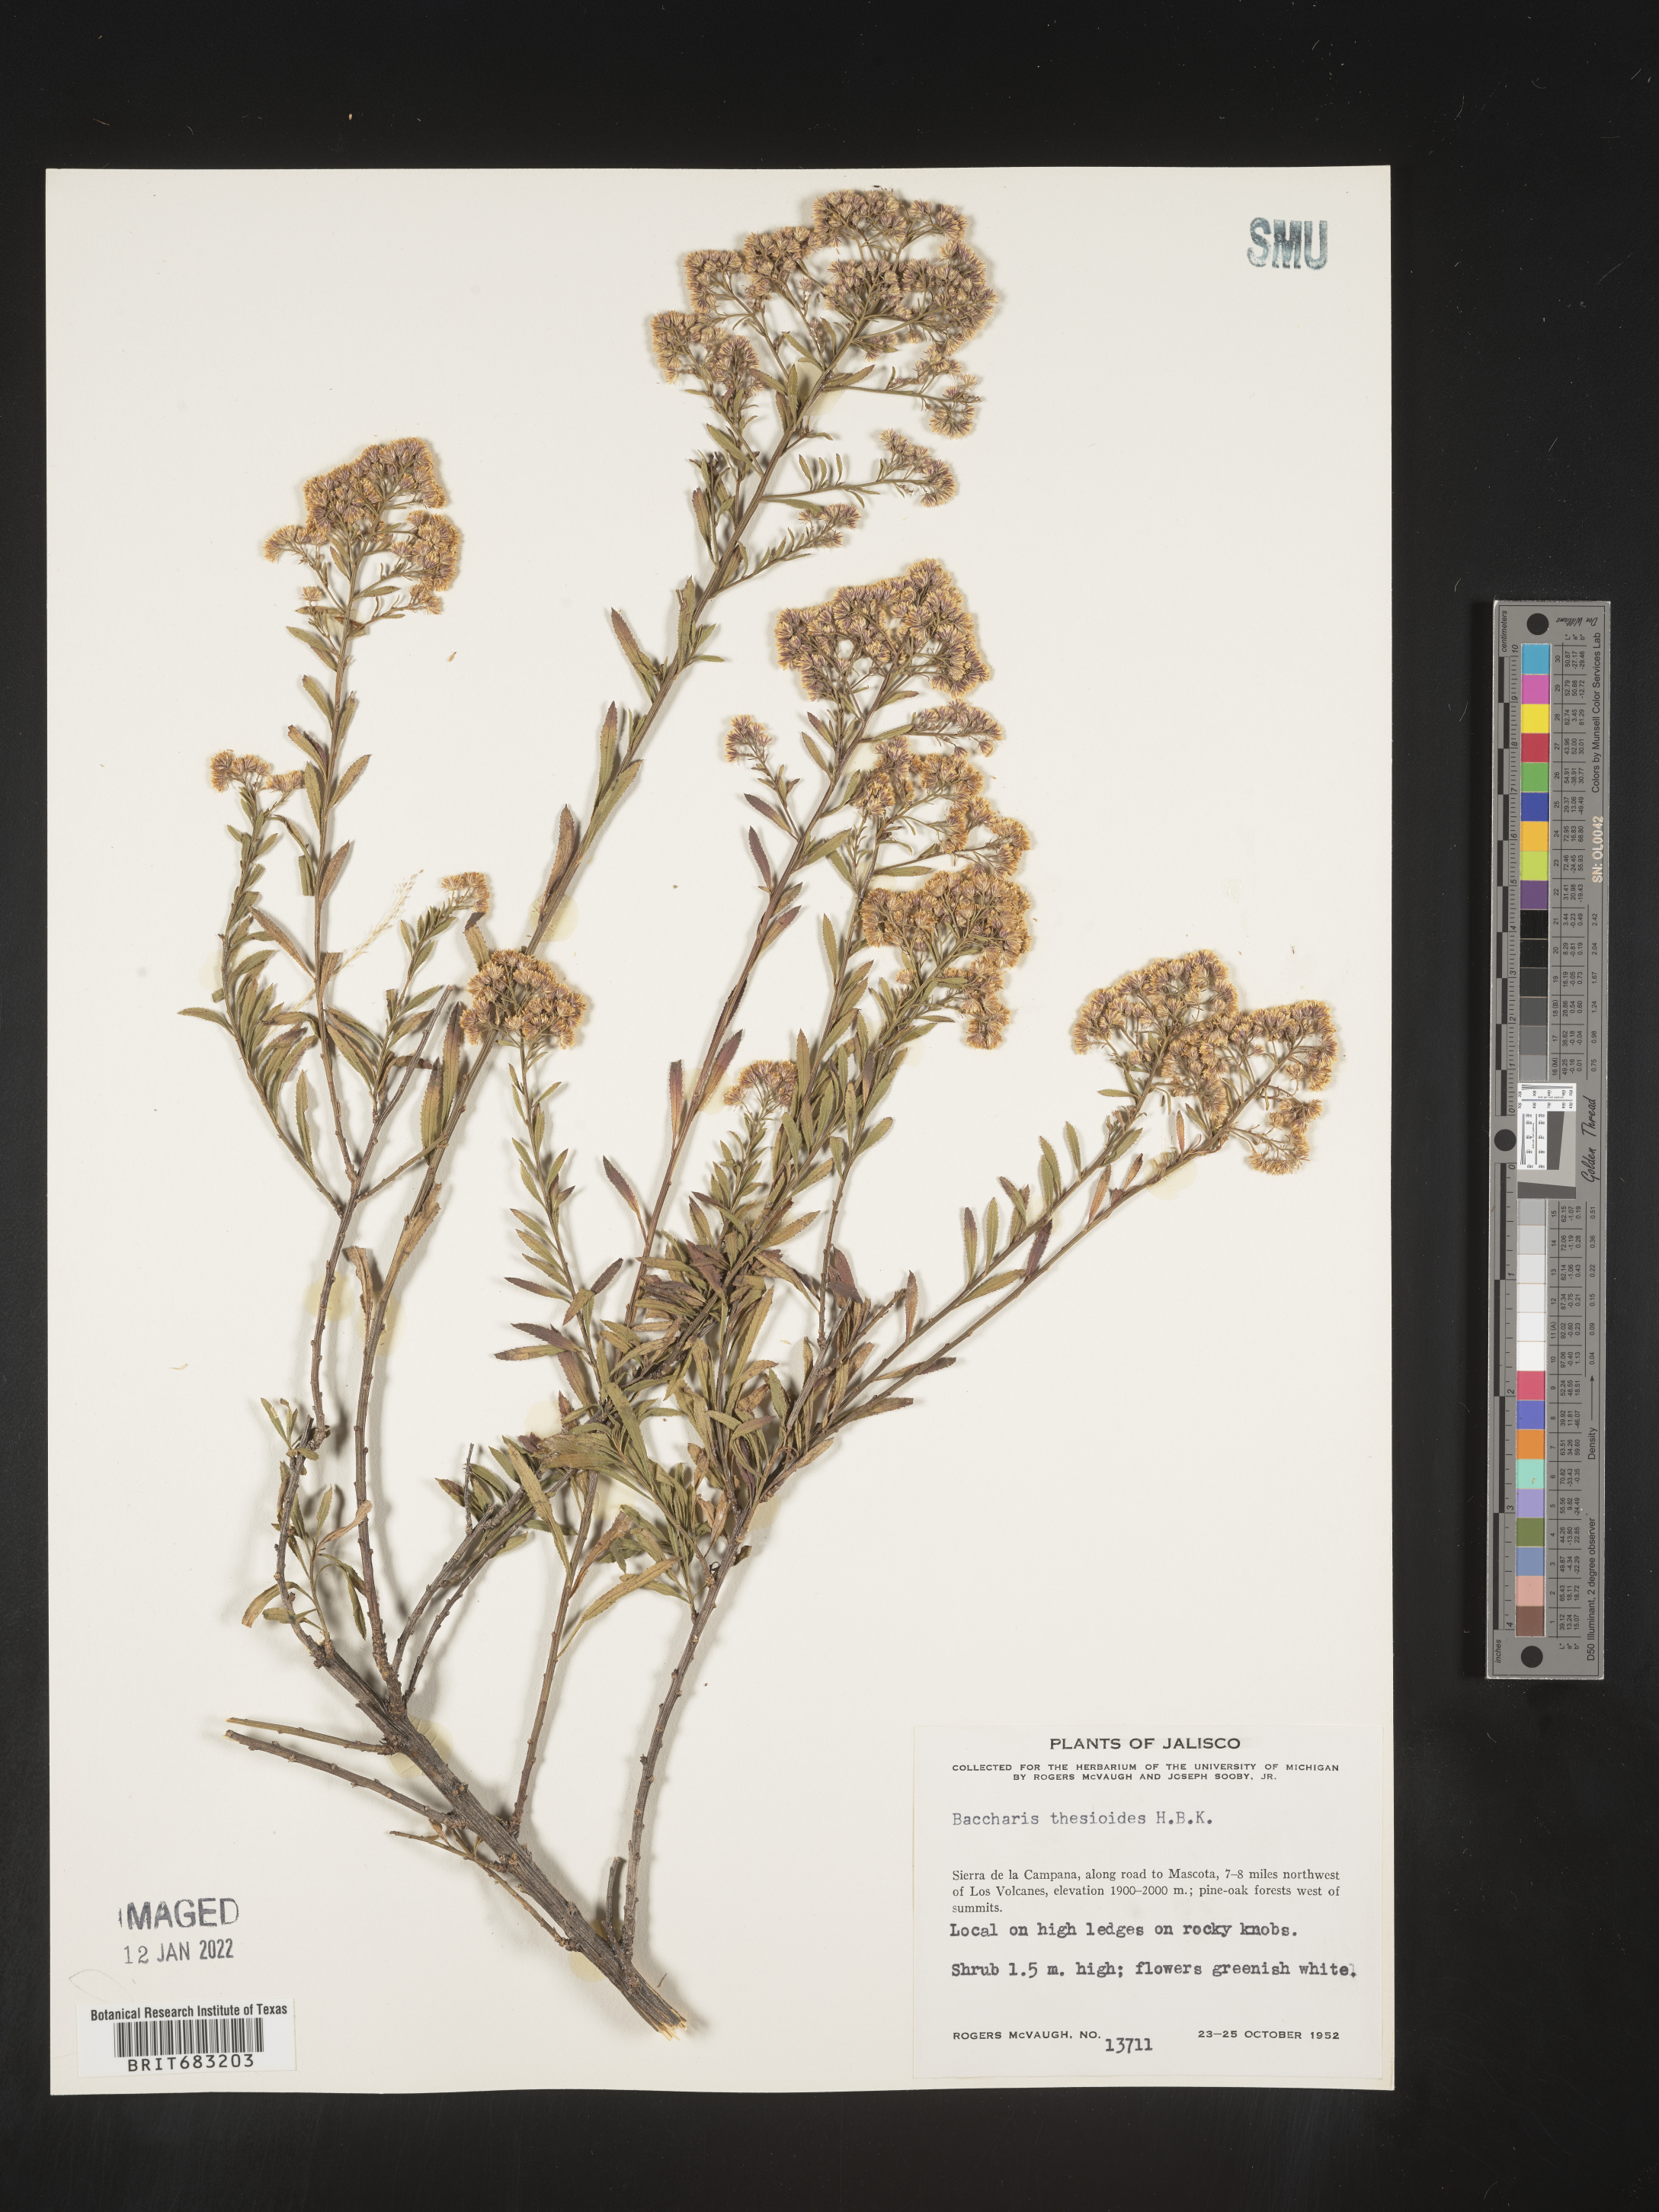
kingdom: Plantae
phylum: Tracheophyta
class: Magnoliopsida
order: Asterales
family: Asteraceae
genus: Baccharis
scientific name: Baccharis thesioides
